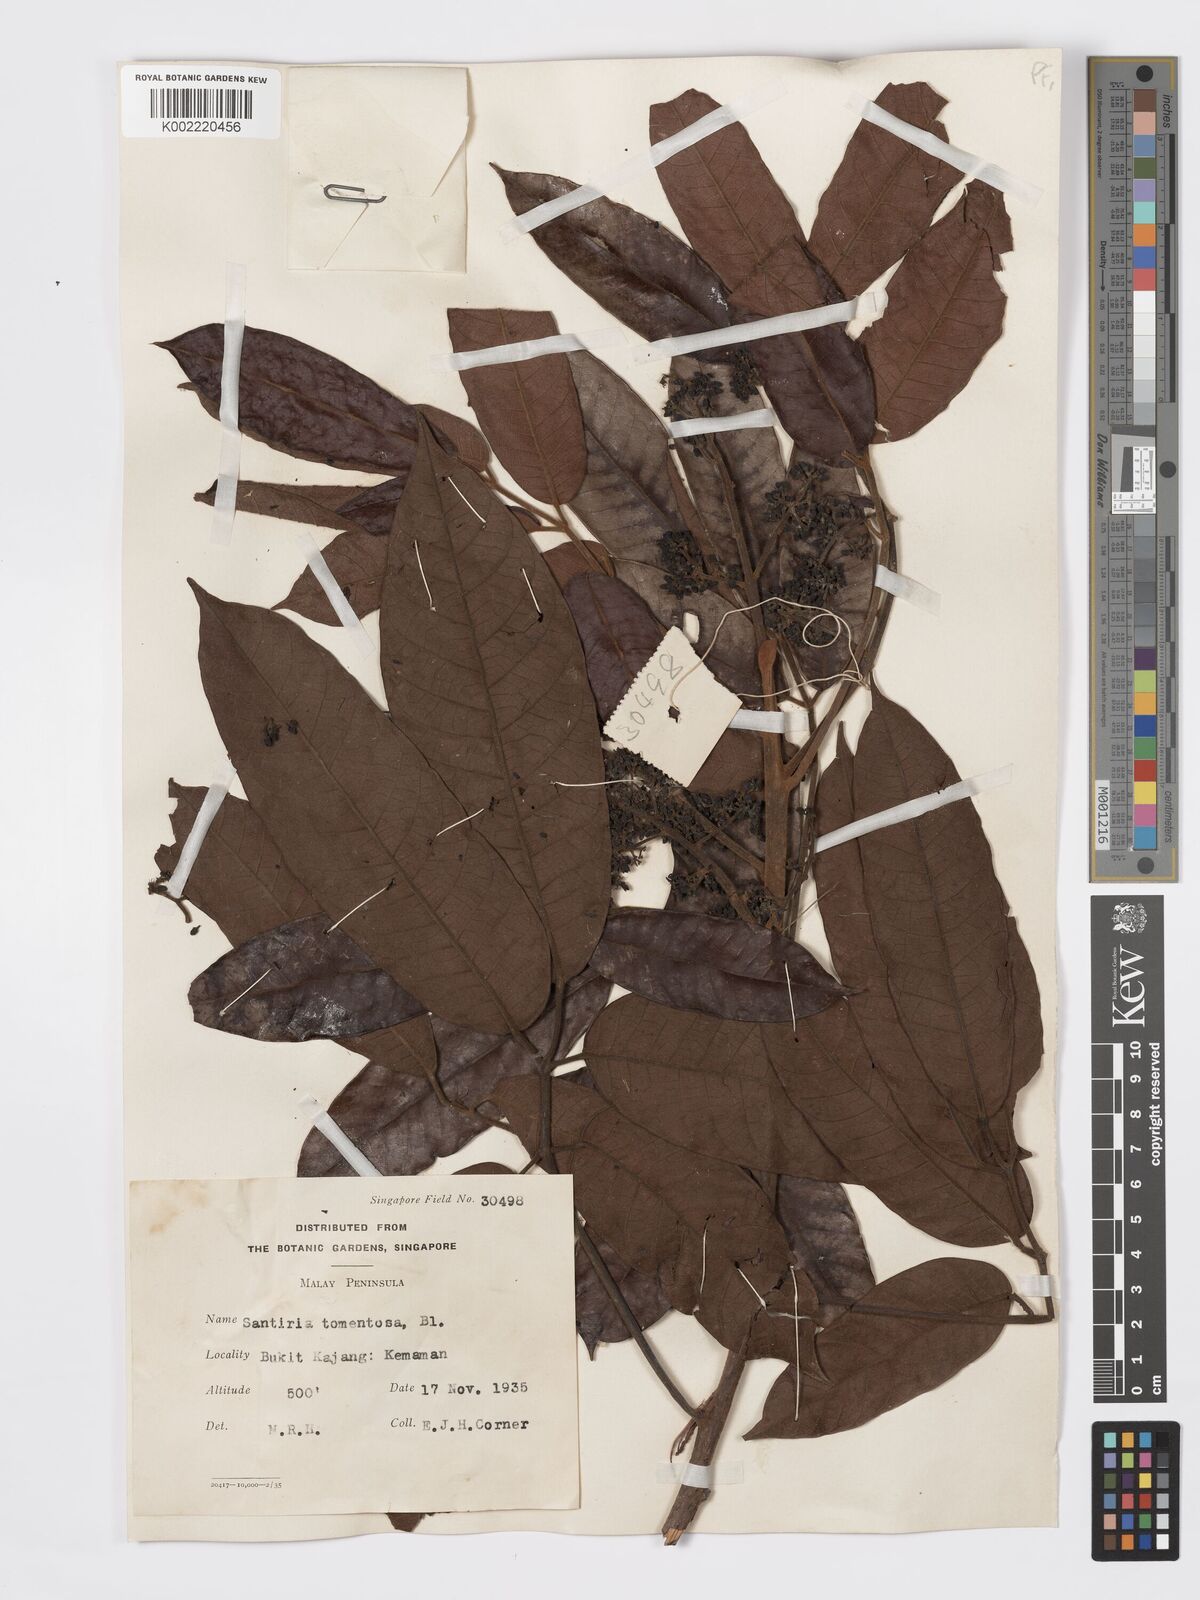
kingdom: Plantae
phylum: Tracheophyta
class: Magnoliopsida
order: Sapindales
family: Burseraceae
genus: Santiria
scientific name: Santiria tomentosa
